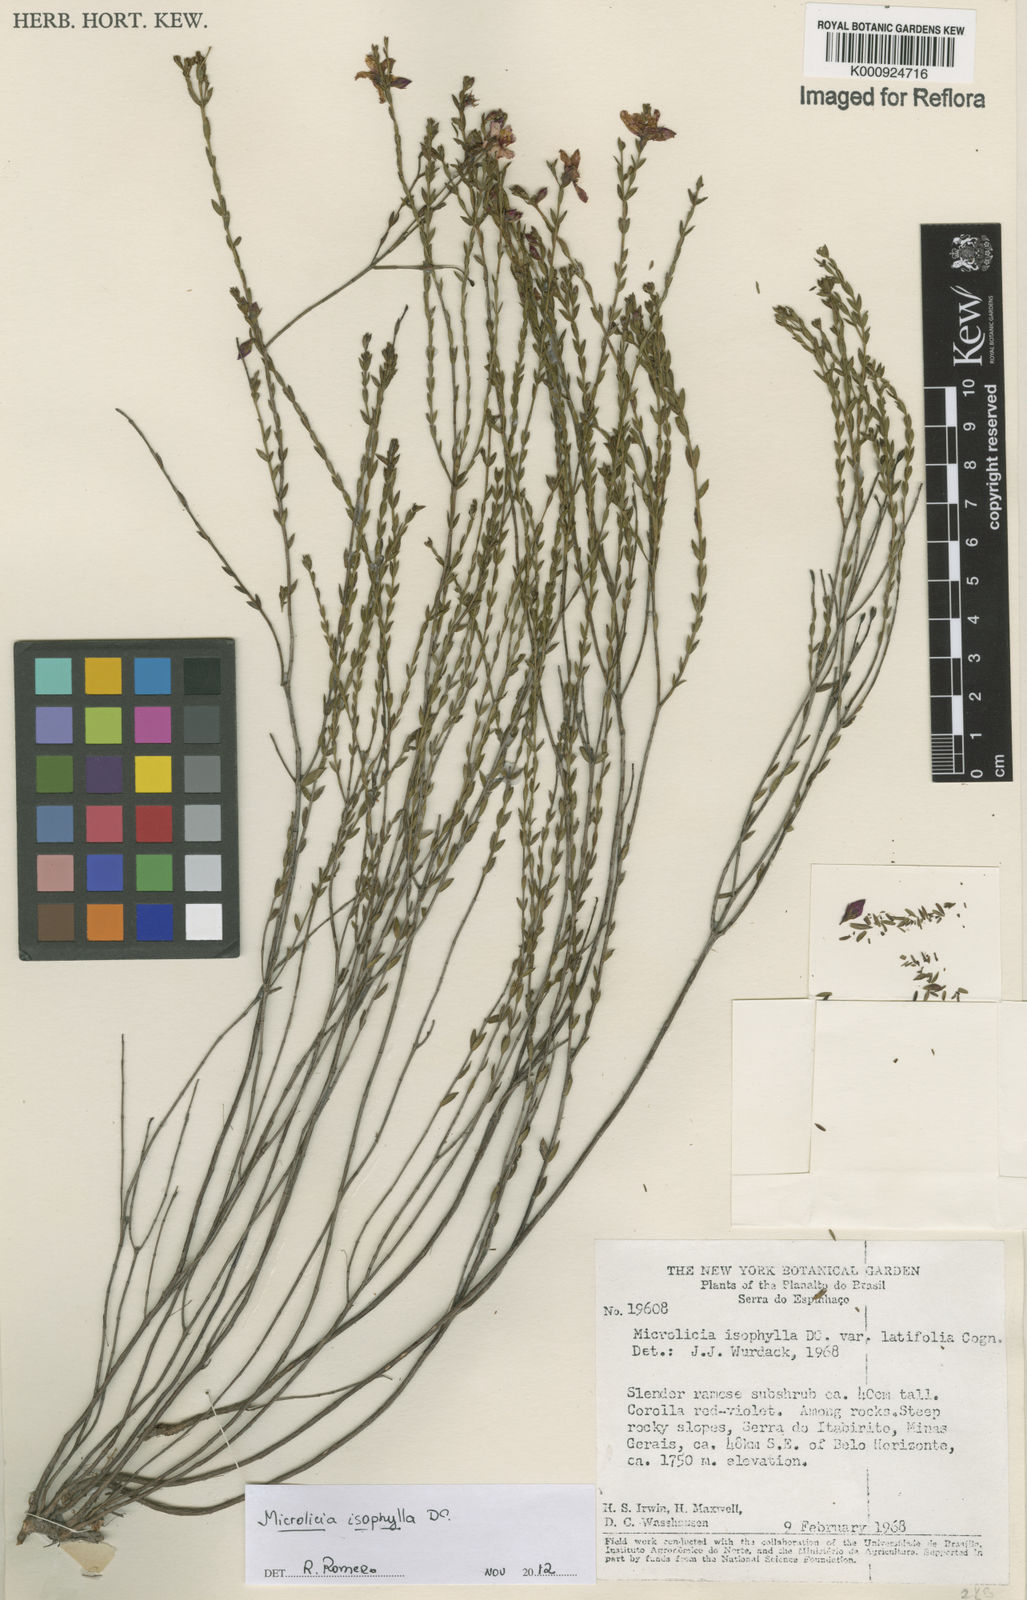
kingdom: Plantae
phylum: Tracheophyta
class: Magnoliopsida
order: Myrtales
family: Melastomataceae
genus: Microlicia
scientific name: Microlicia isophylla
